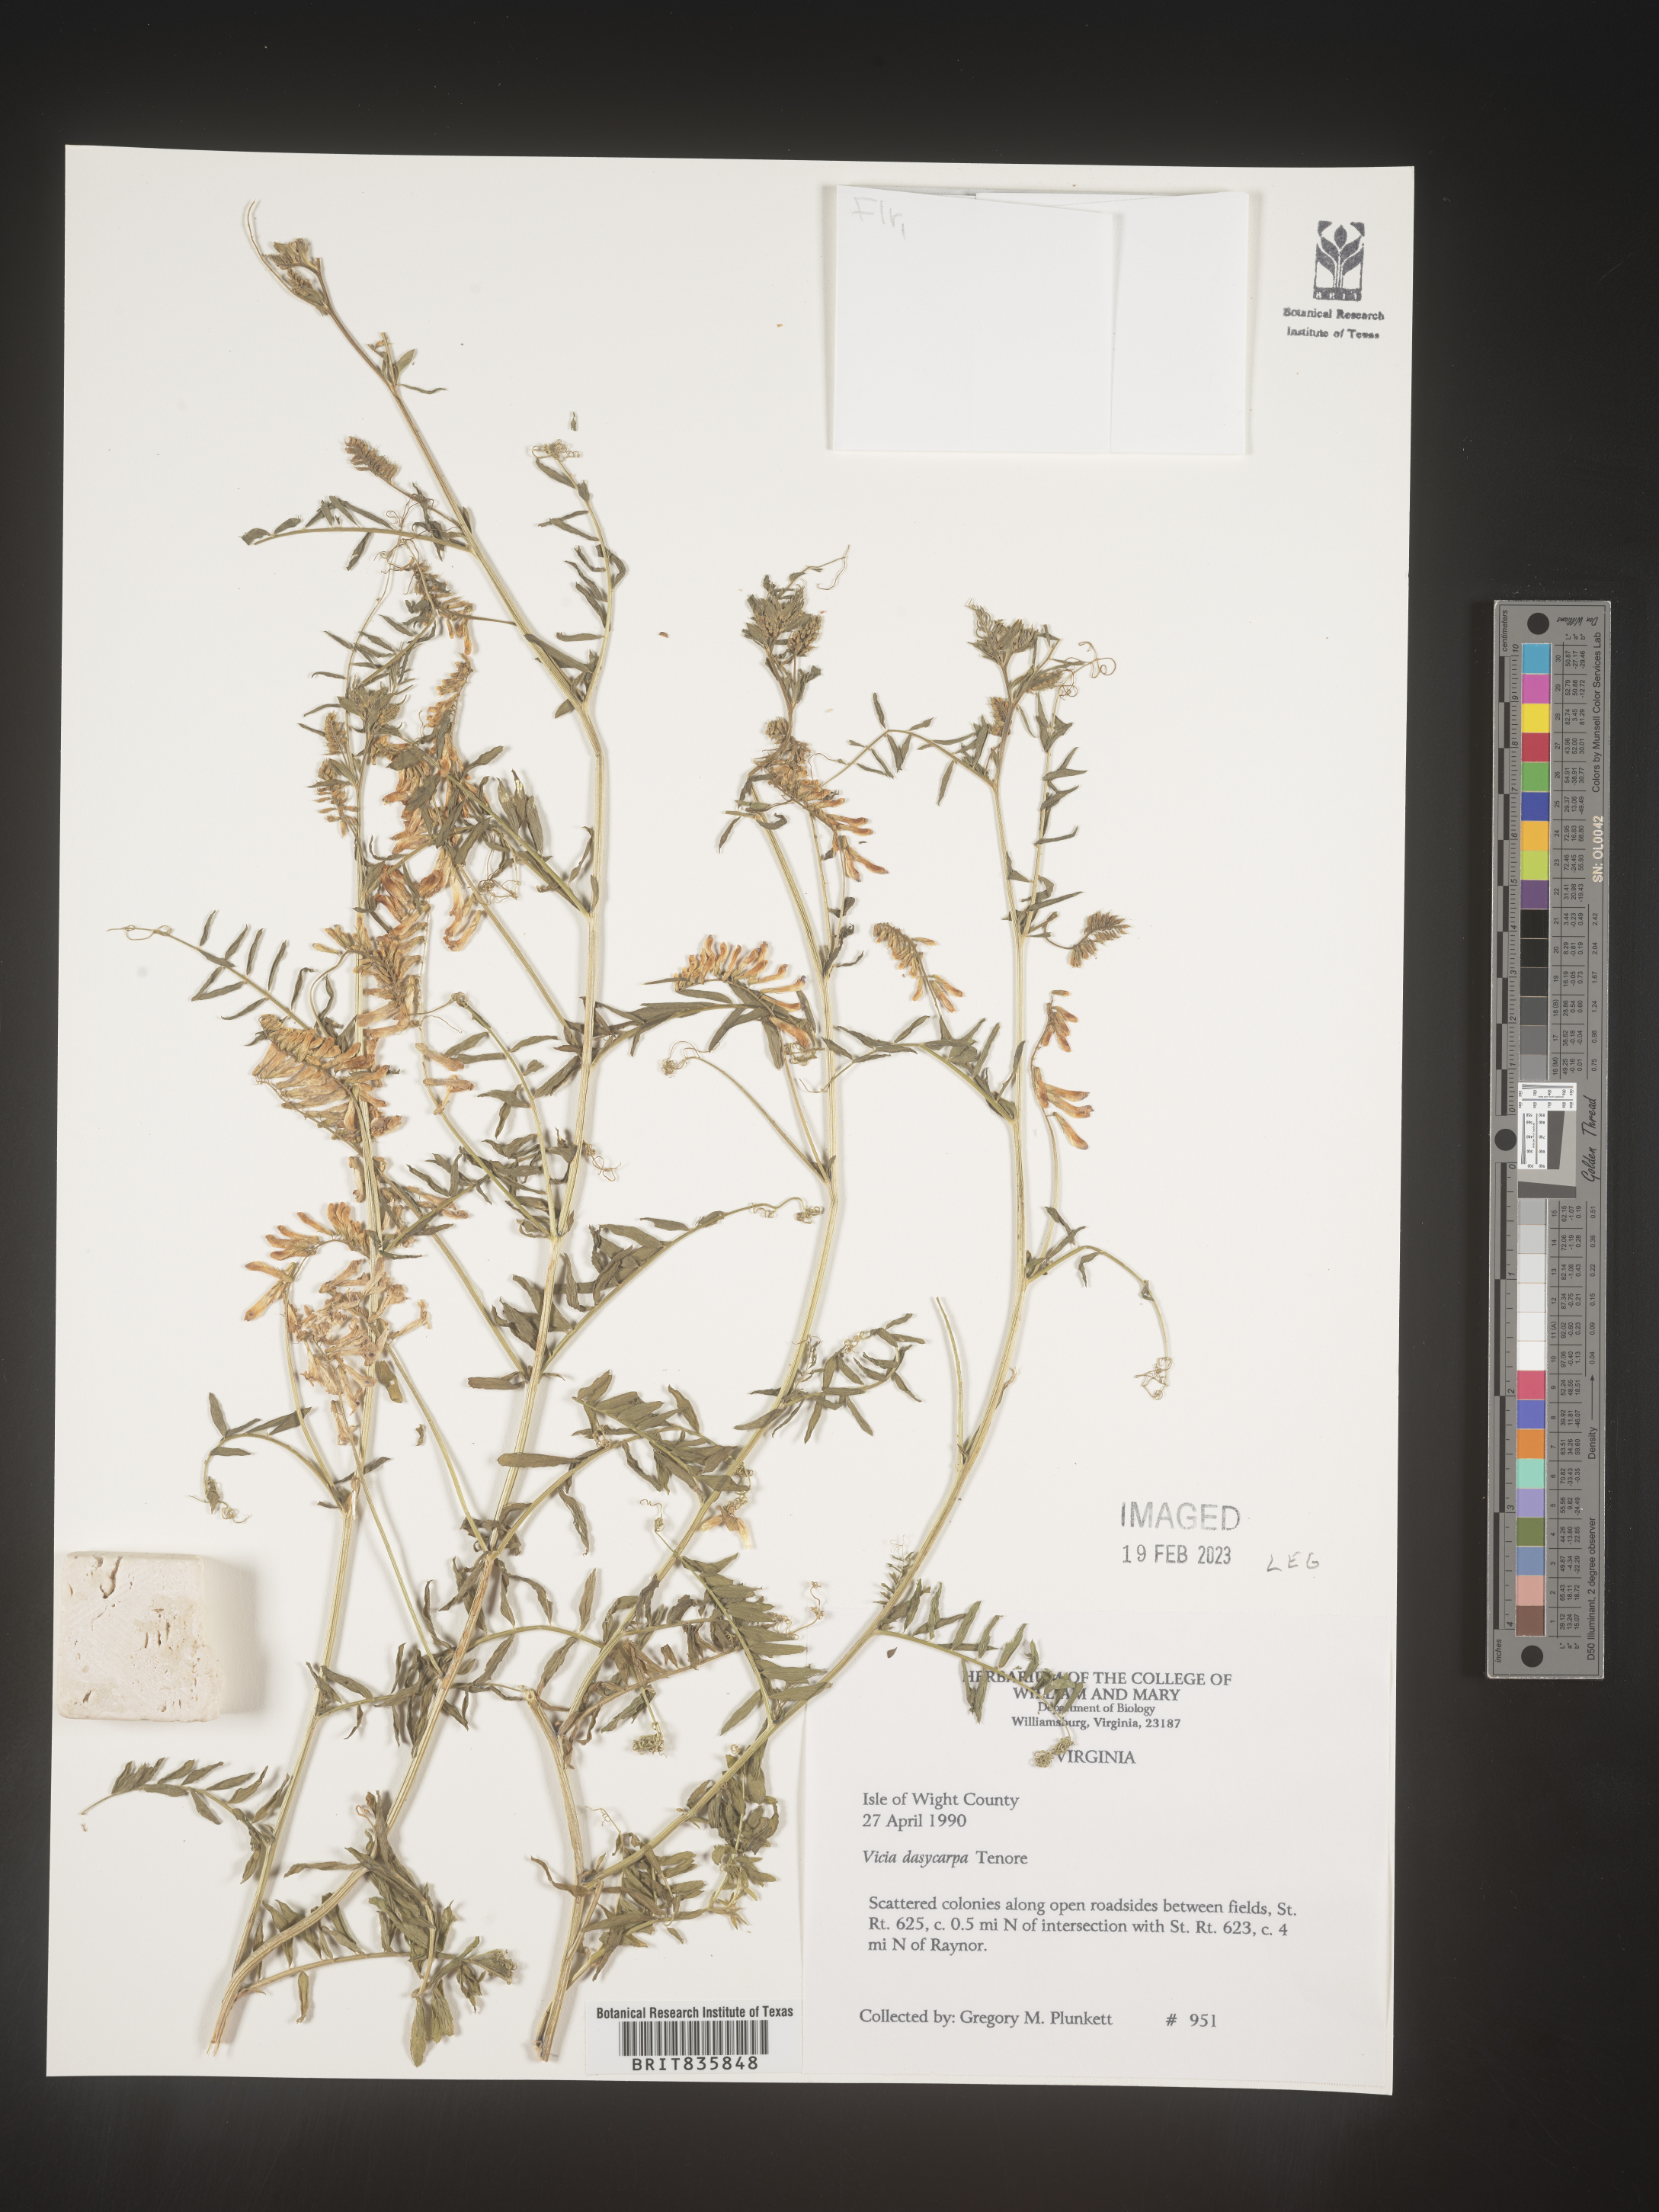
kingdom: Plantae
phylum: Tracheophyta
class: Magnoliopsida
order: Fabales
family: Fabaceae
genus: Vicia
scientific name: Vicia villosa
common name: Fodder vetch
